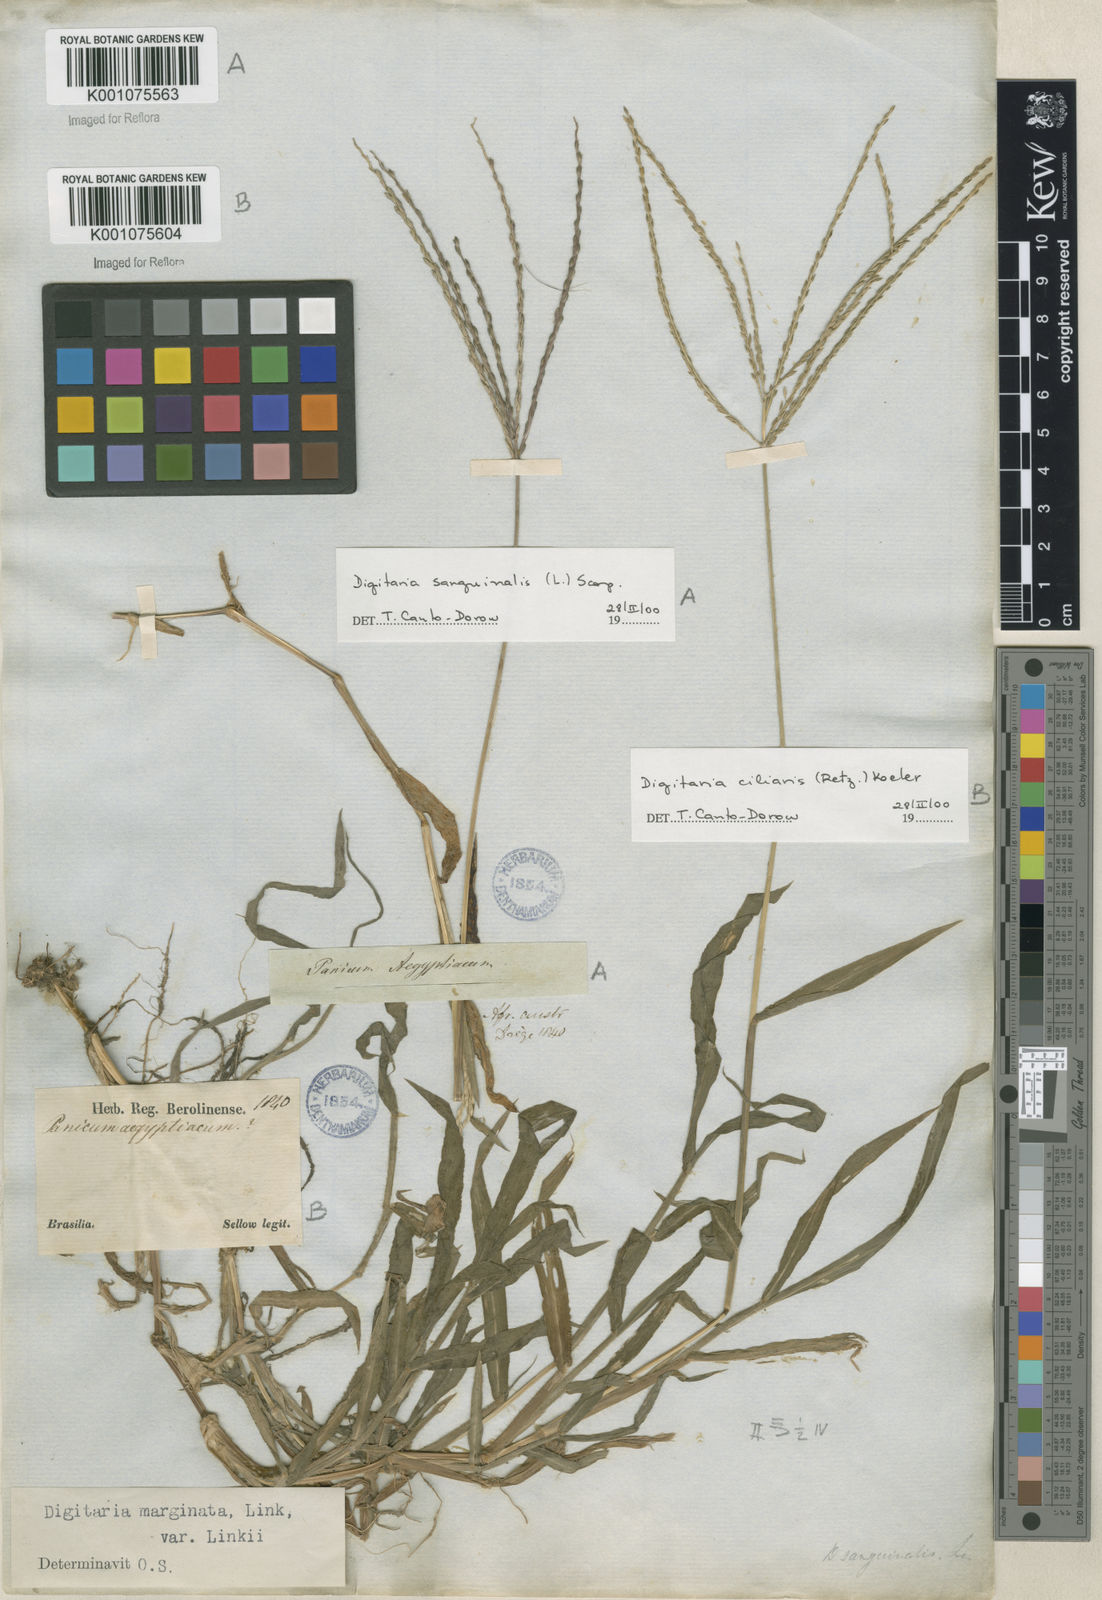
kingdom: Plantae
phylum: Tracheophyta
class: Liliopsida
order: Poales
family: Poaceae
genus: Digitaria
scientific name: Digitaria ciliaris
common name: Tropical finger-grass
